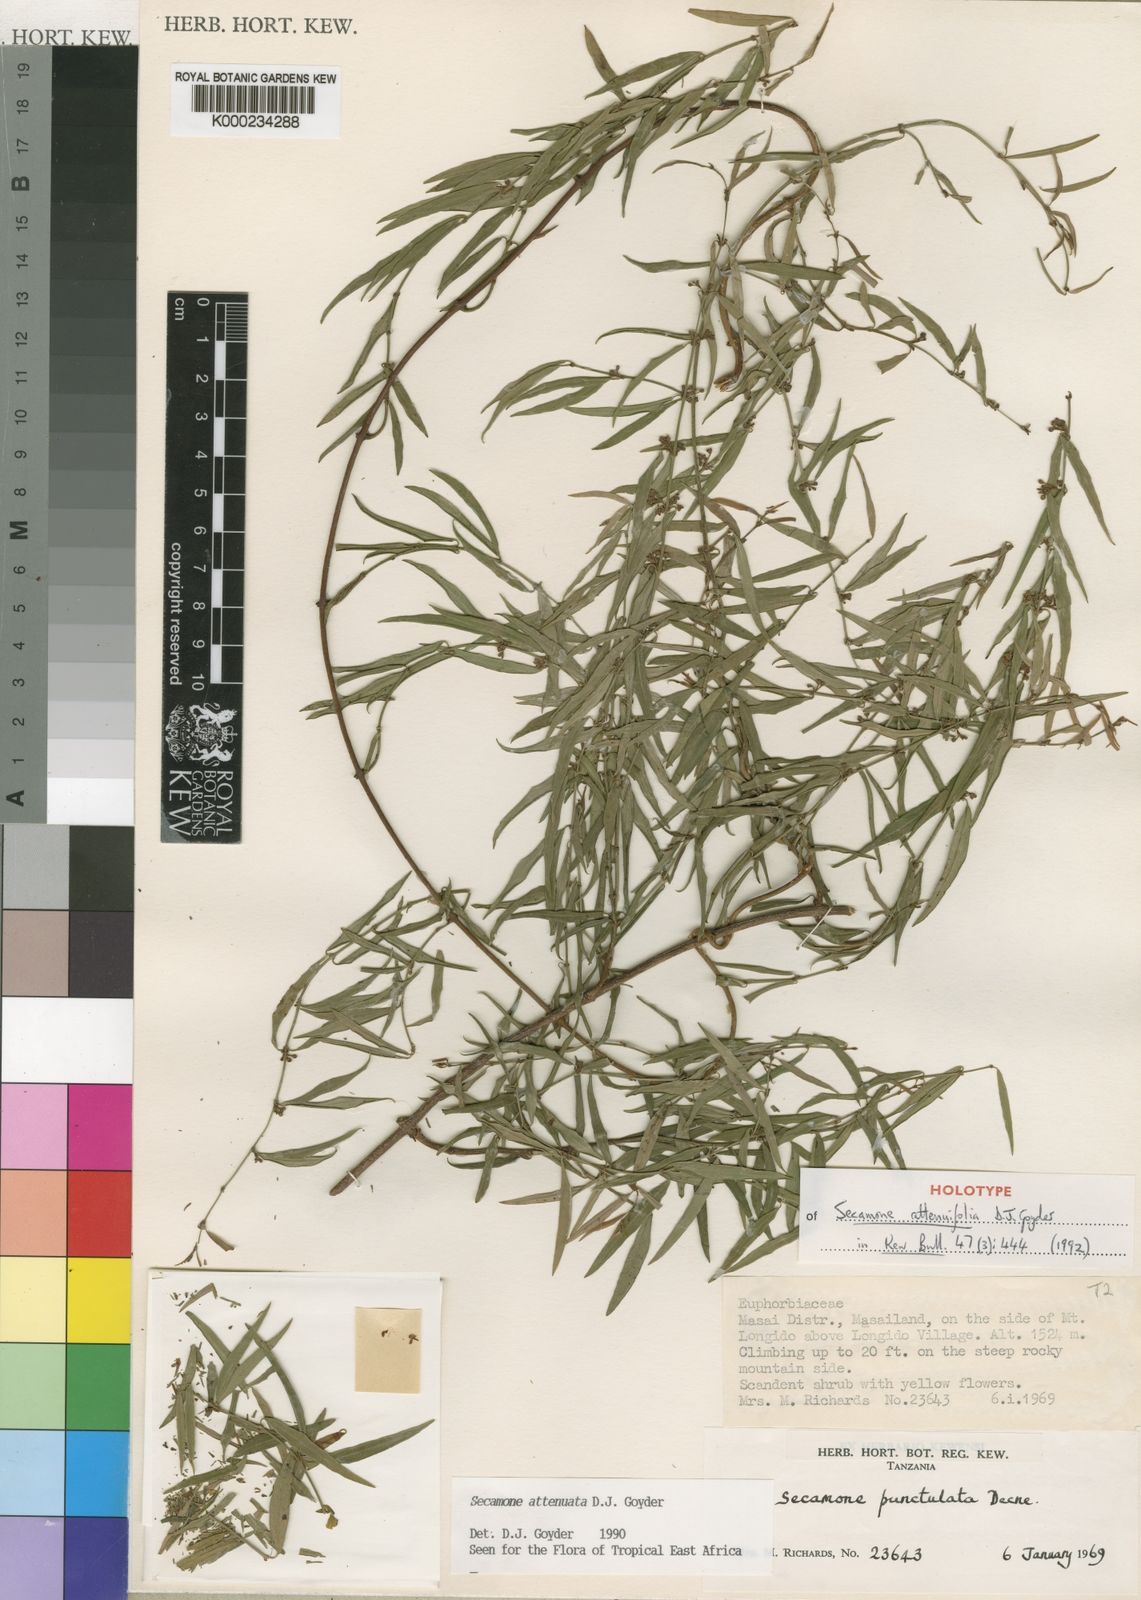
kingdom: Plantae
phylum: Tracheophyta
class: Magnoliopsida
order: Gentianales
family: Apocynaceae
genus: Secamone
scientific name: Secamone attenuifolia
